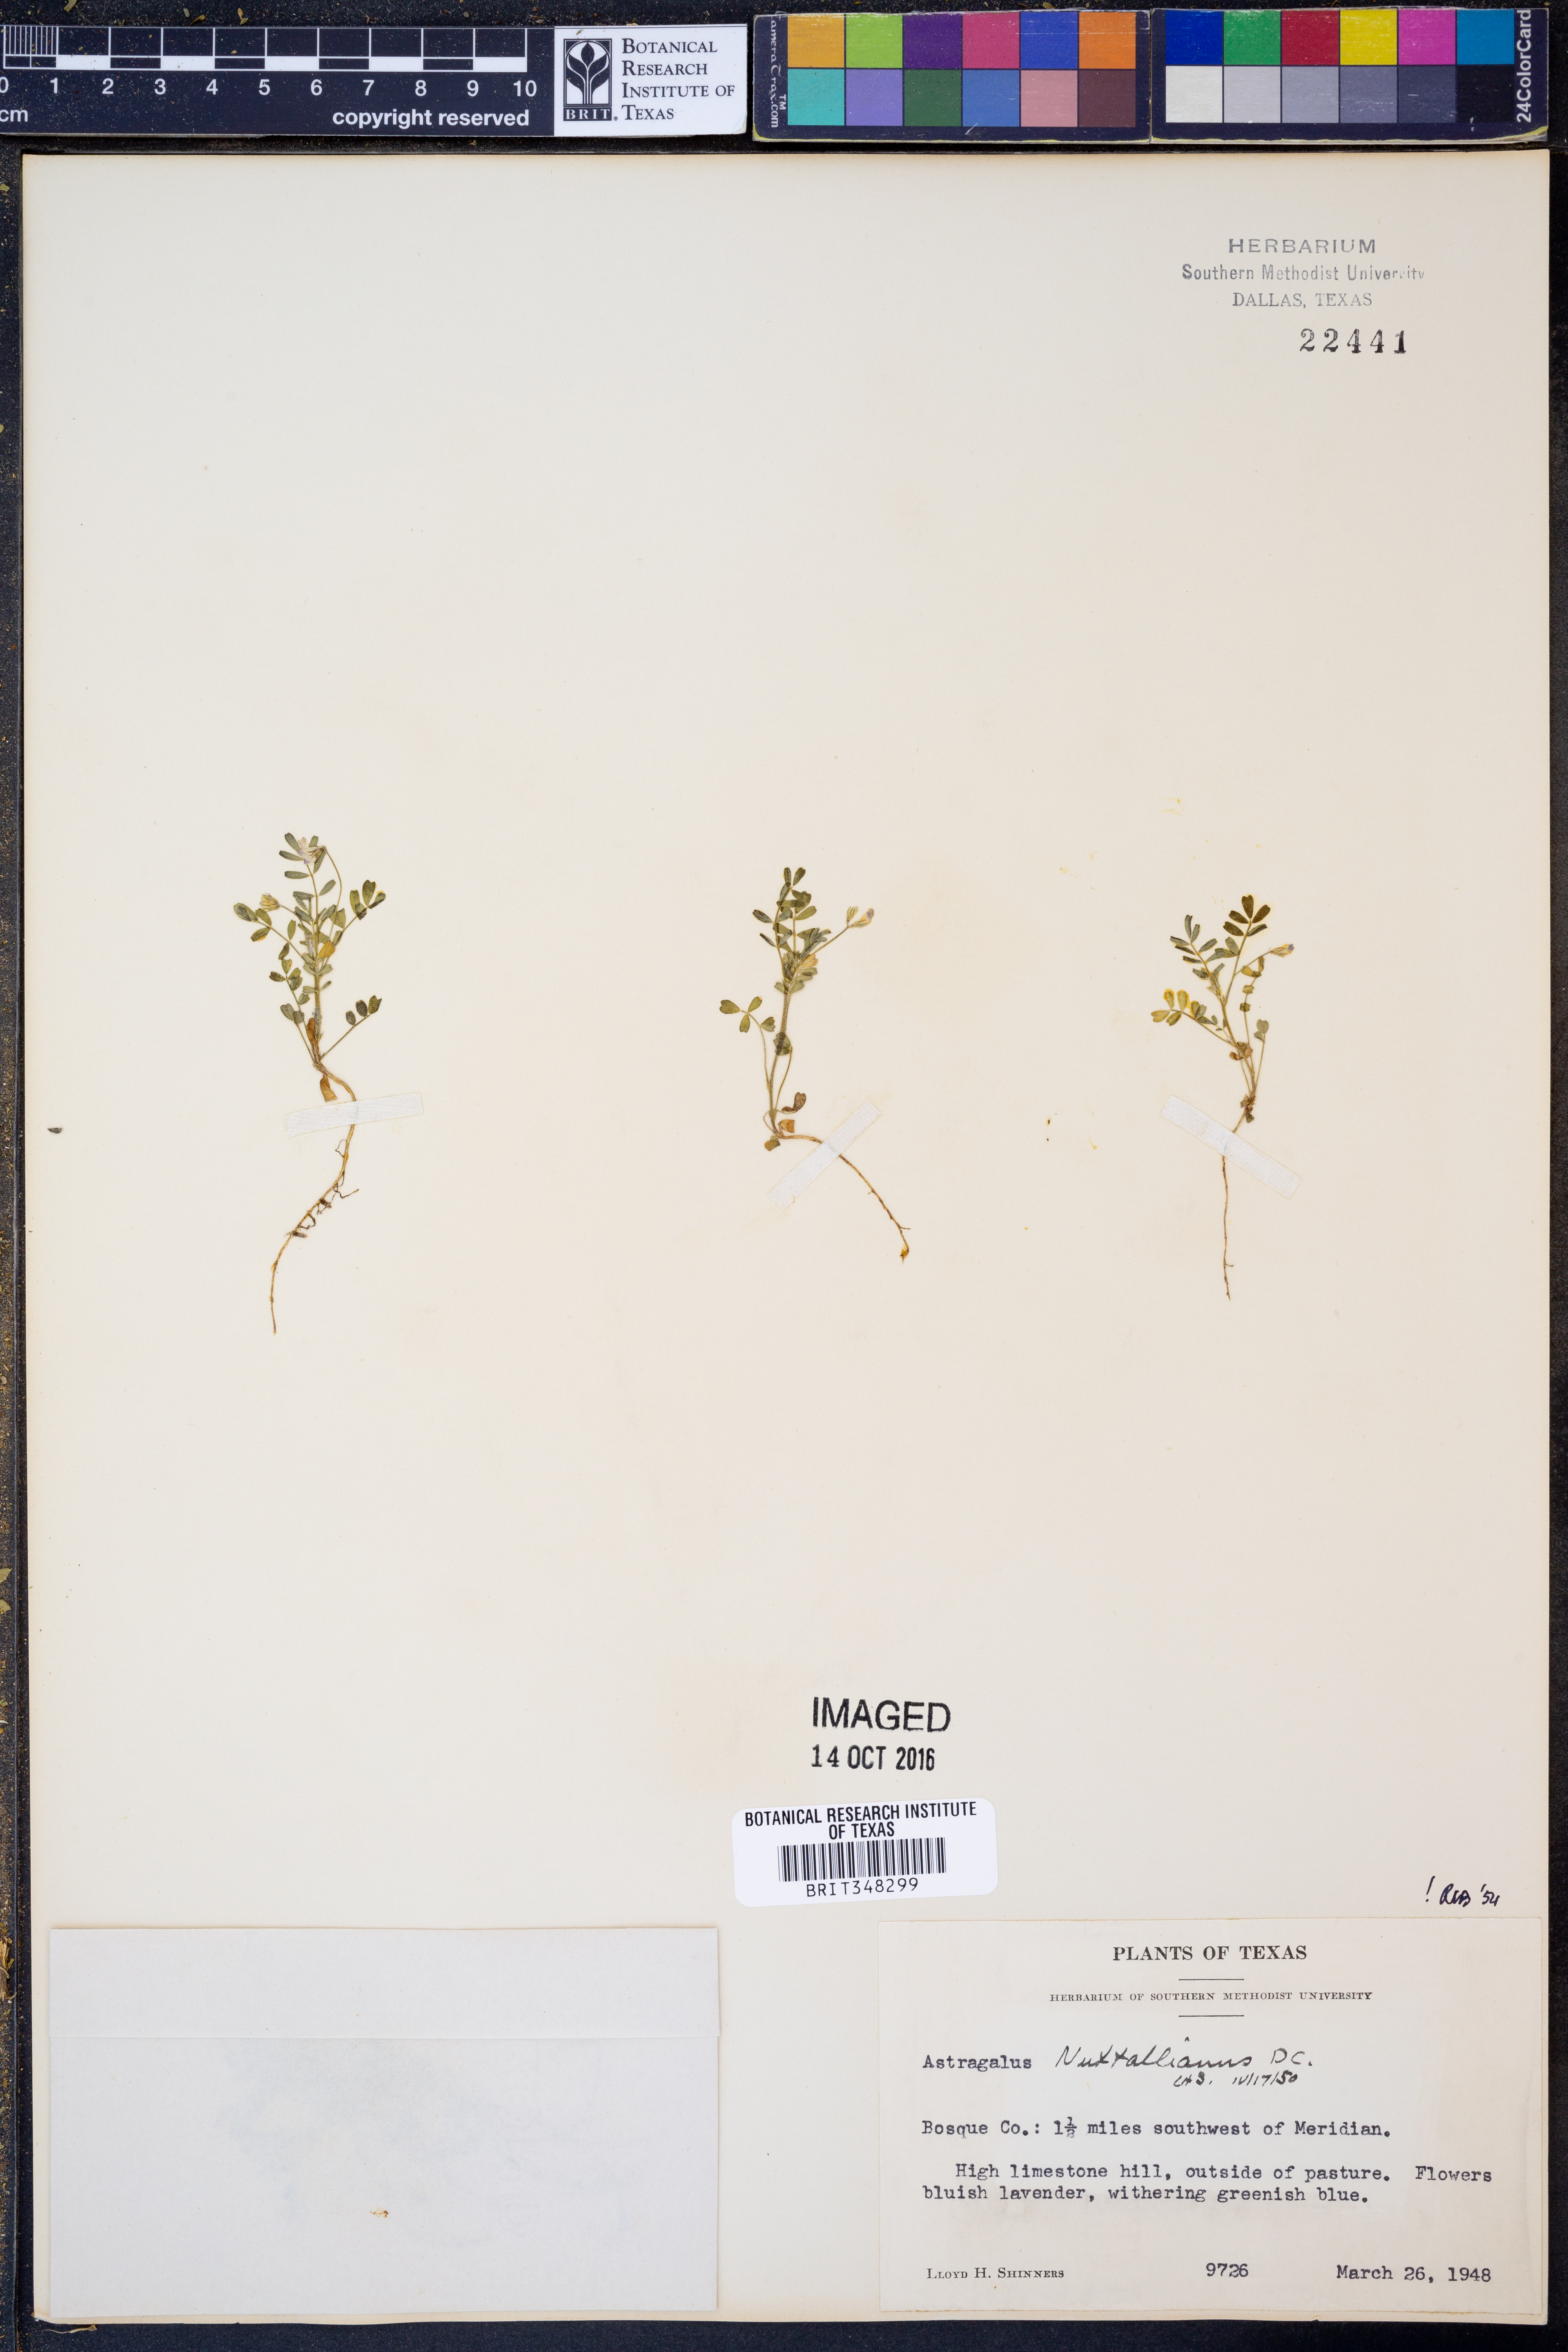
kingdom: Plantae
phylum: Tracheophyta
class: Magnoliopsida
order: Fabales
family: Fabaceae
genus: Astragalus
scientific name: Astragalus nuttallianus
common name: Smallflowered milkvetch
